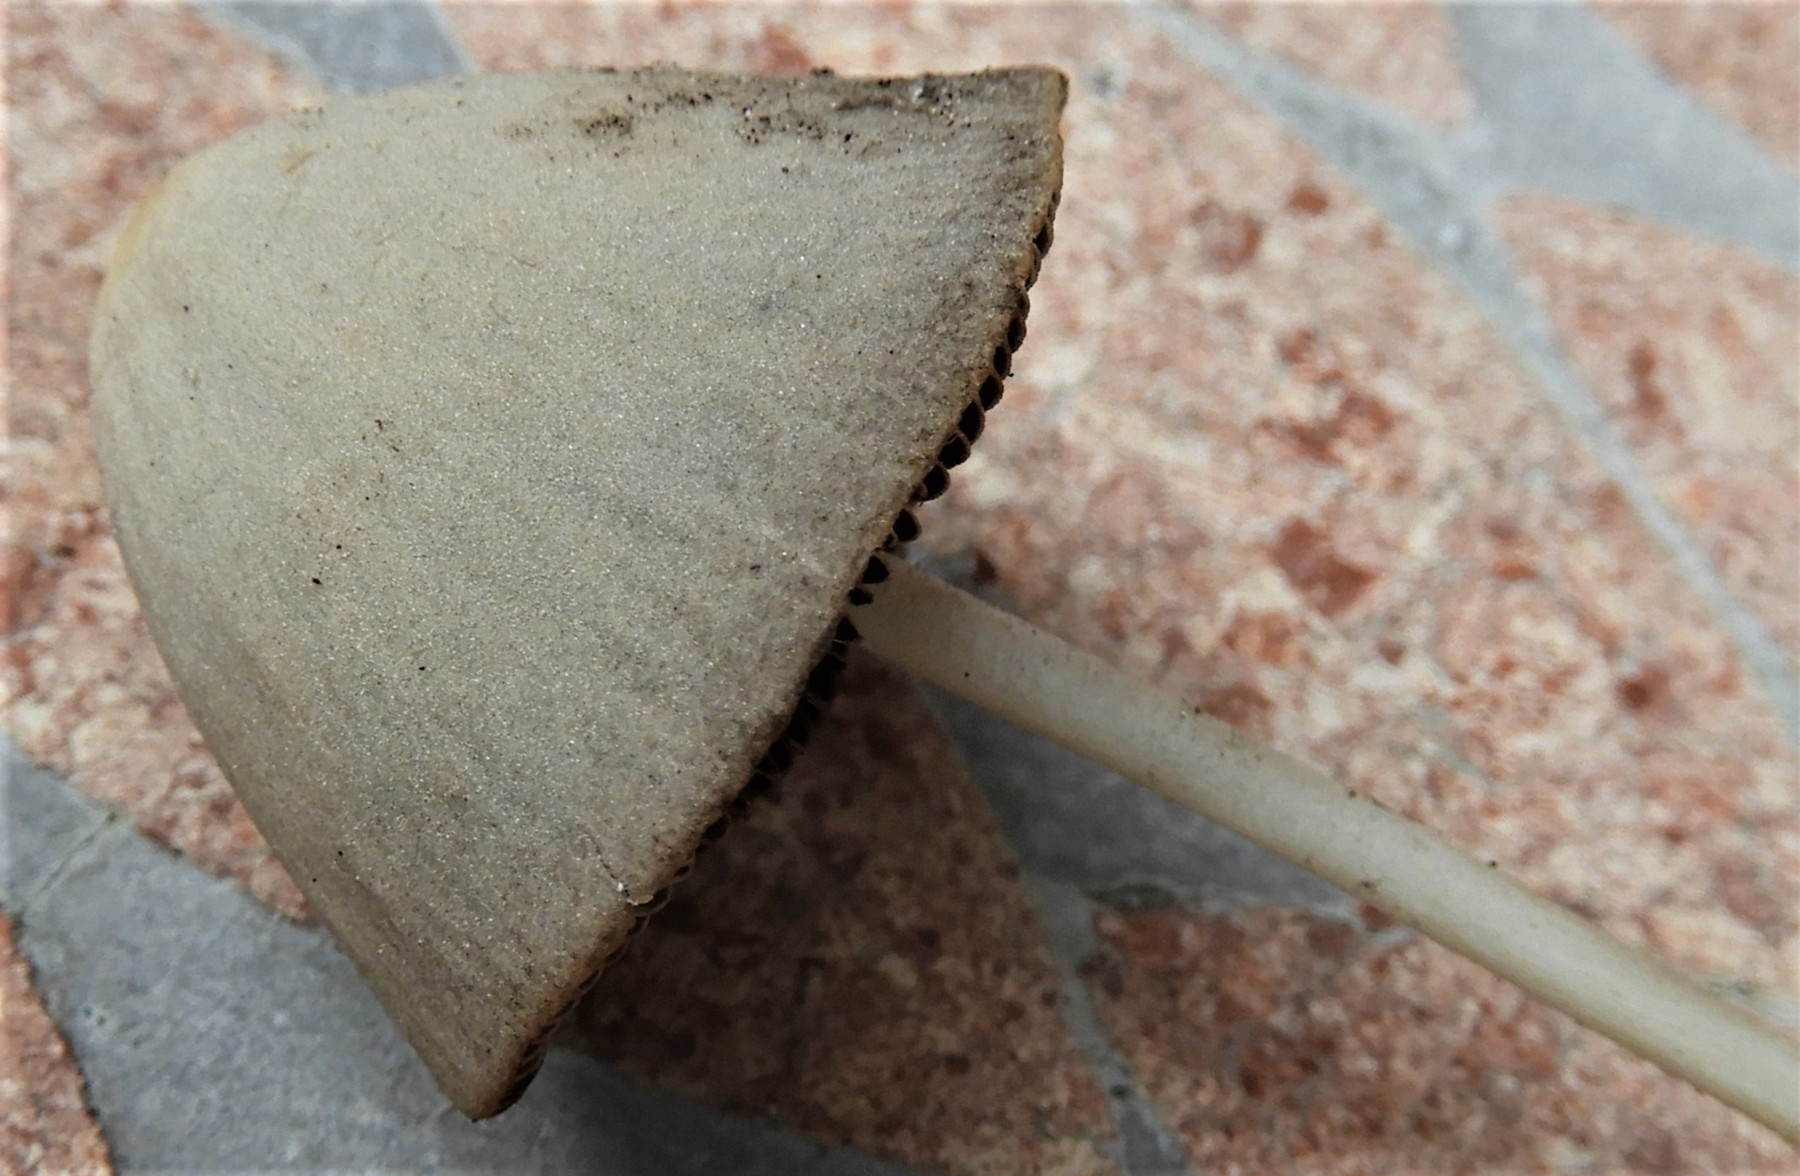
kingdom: Fungi
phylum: Basidiomycota
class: Agaricomycetes
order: Agaricales
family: Psathyrellaceae
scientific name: Psathyrellaceae
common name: mørkhatfamilien
